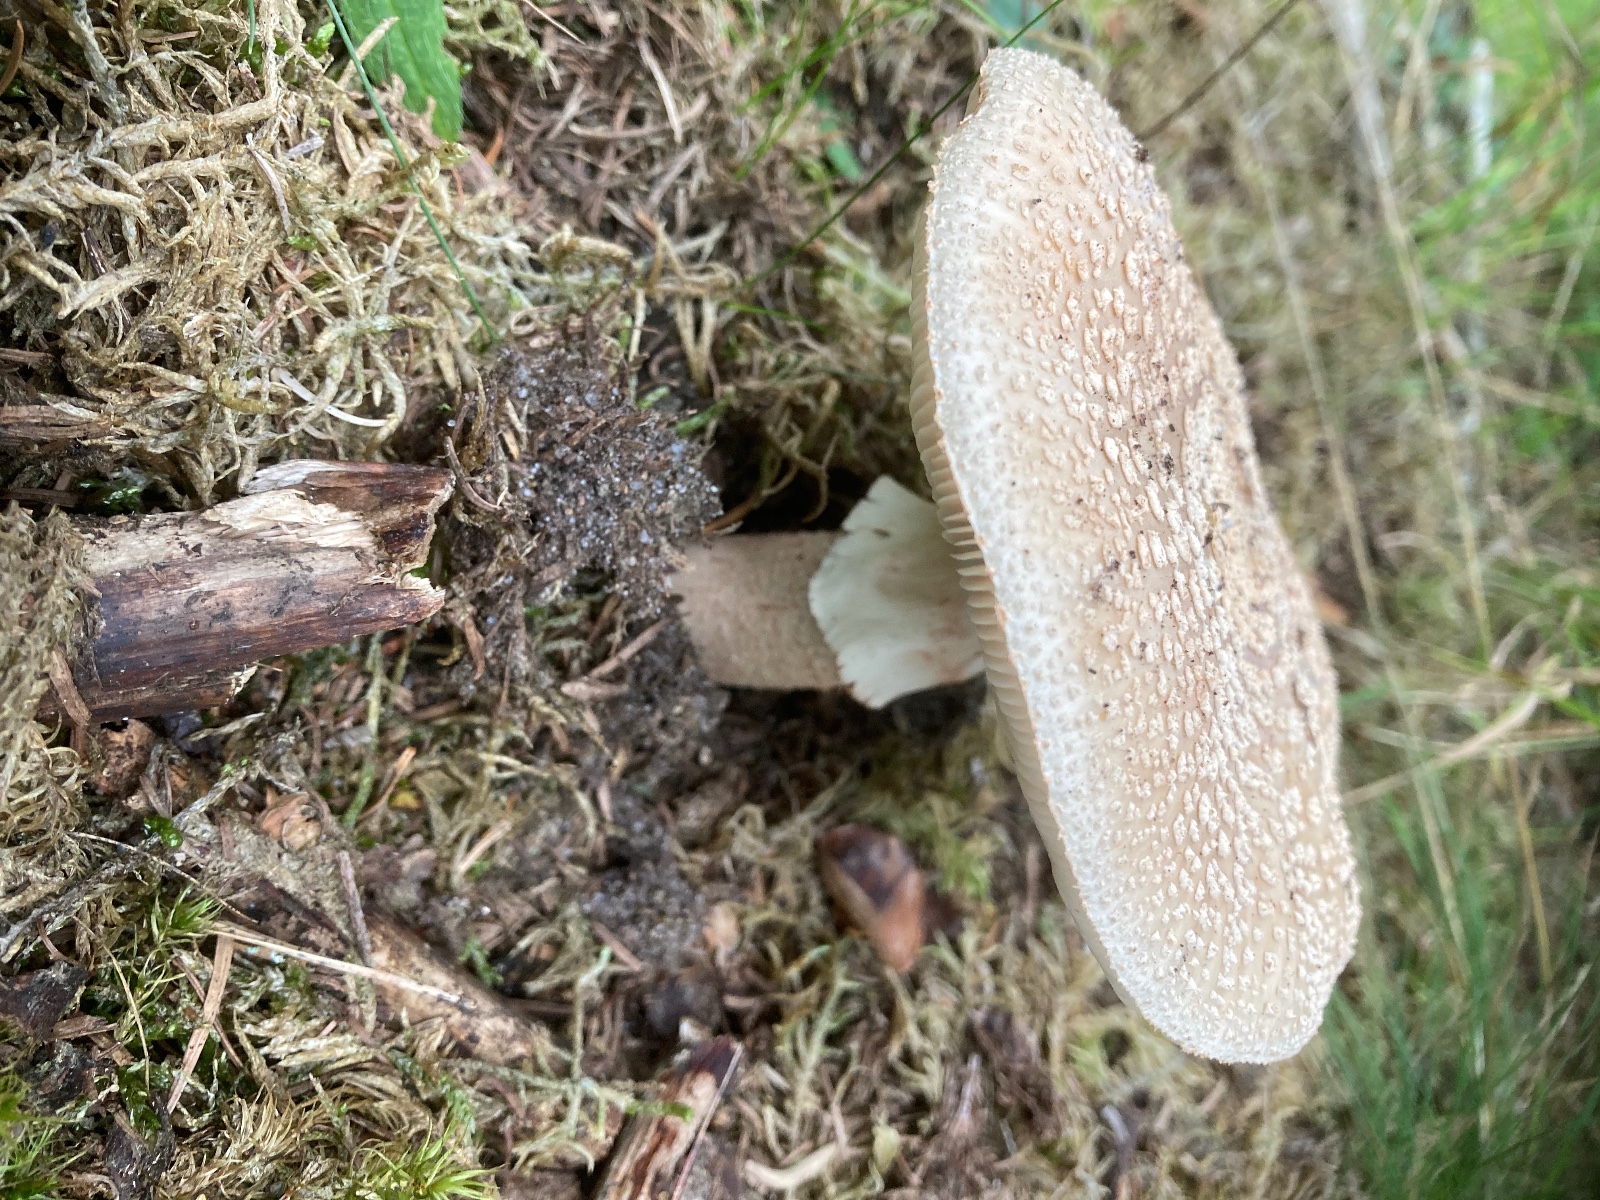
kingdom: Fungi
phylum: Basidiomycota
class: Agaricomycetes
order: Agaricales
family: Amanitaceae
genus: Amanita
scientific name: Amanita rubescens
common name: rødmende fluesvamp
